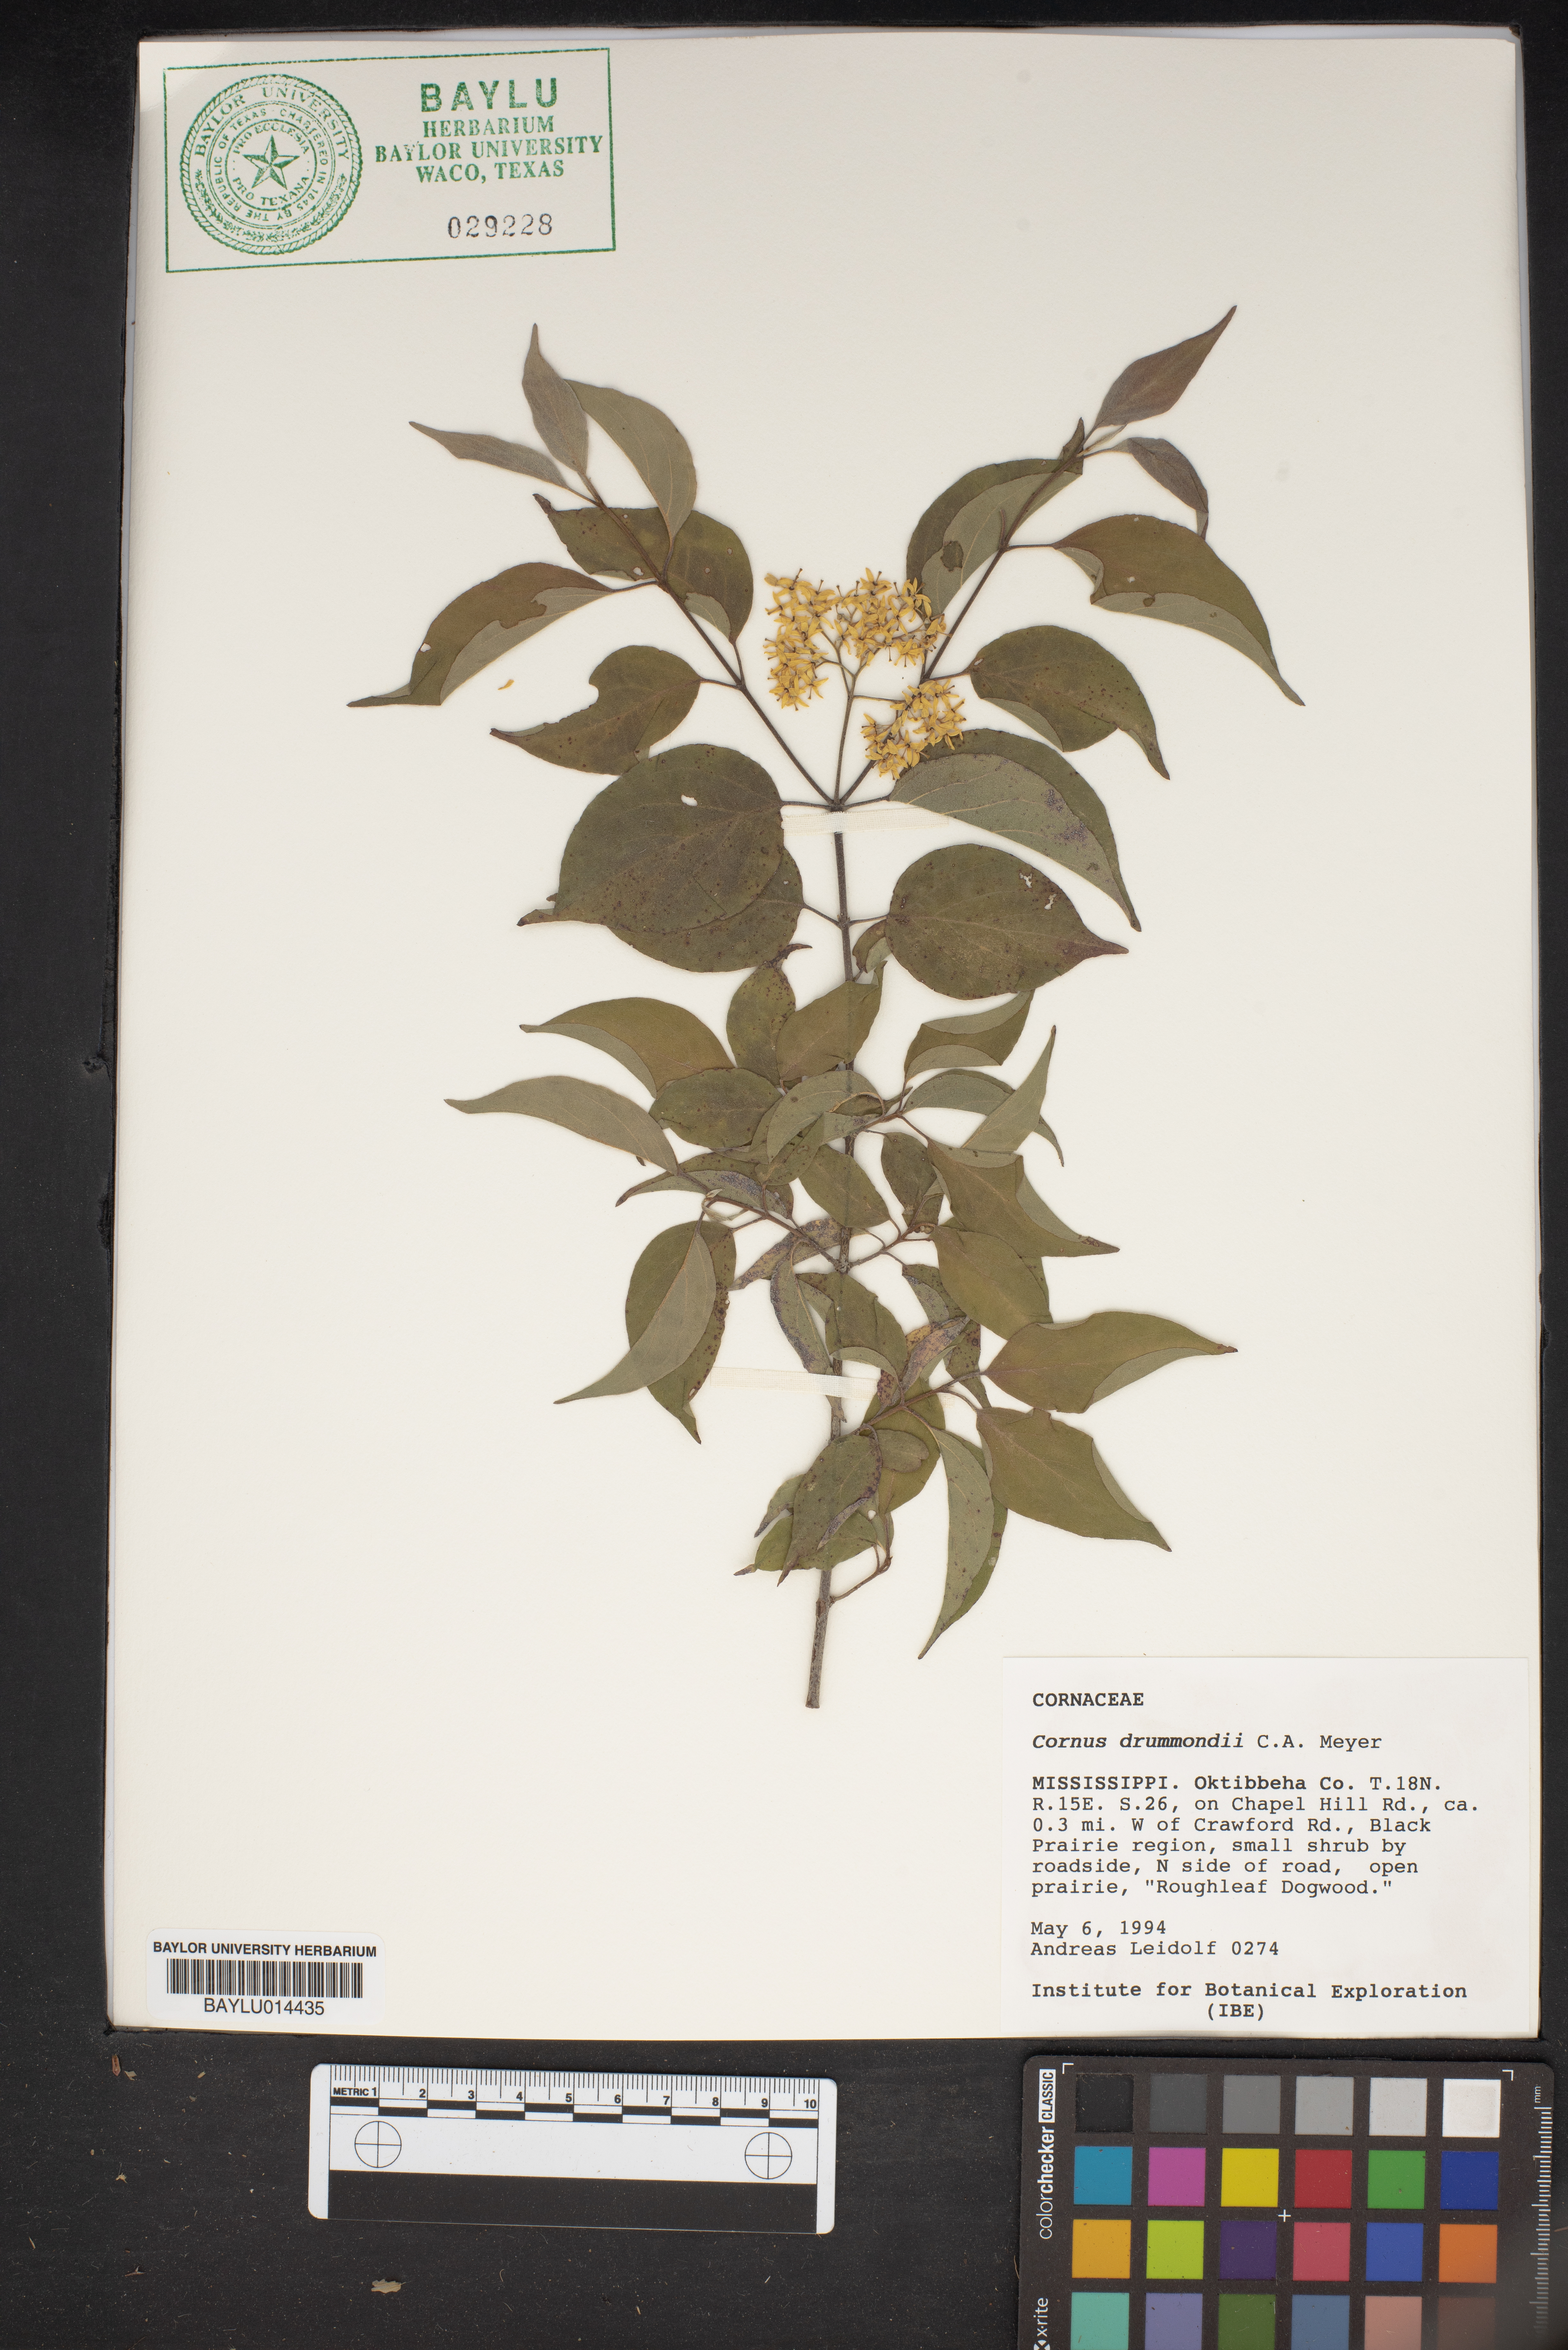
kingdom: Plantae
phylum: Tracheophyta
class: Magnoliopsida
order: Cornales
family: Cornaceae
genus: Cornus
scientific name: Cornus drummondii
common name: Rough-leaf dogwood
